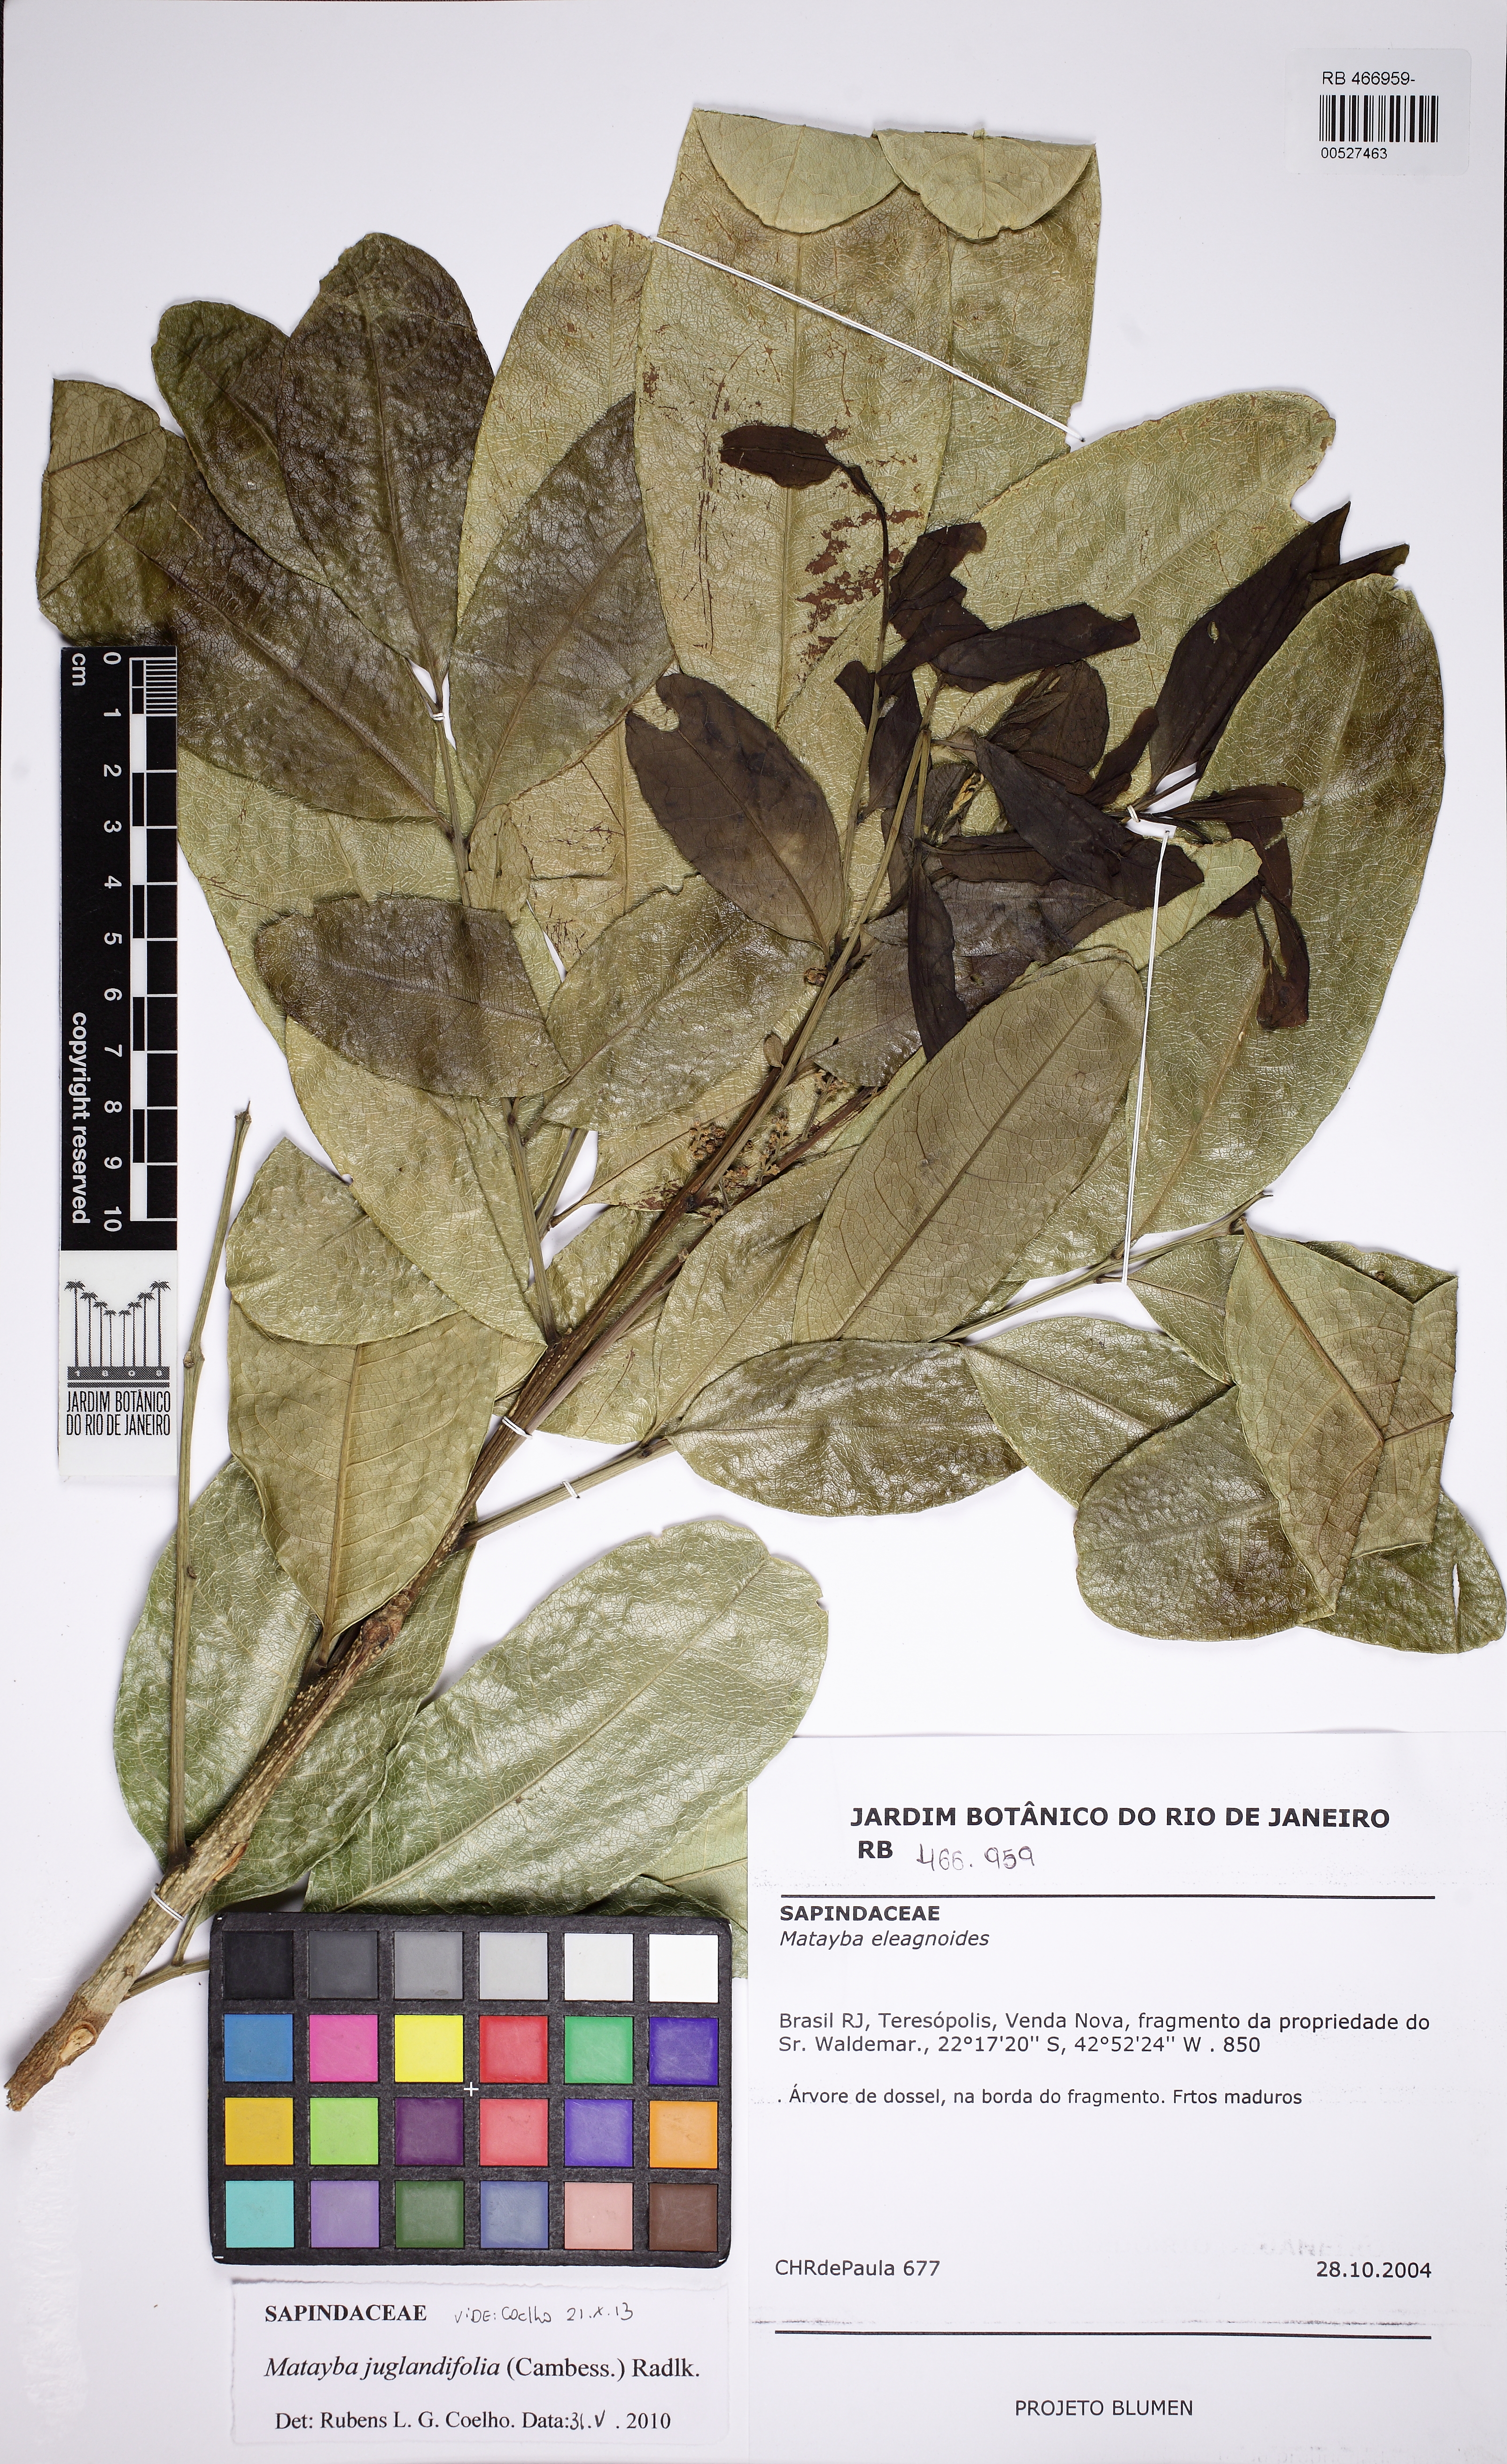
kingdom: Plantae
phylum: Tracheophyta
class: Magnoliopsida
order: Sapindales
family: Sapindaceae
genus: Matayba
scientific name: Matayba juglandifolia
